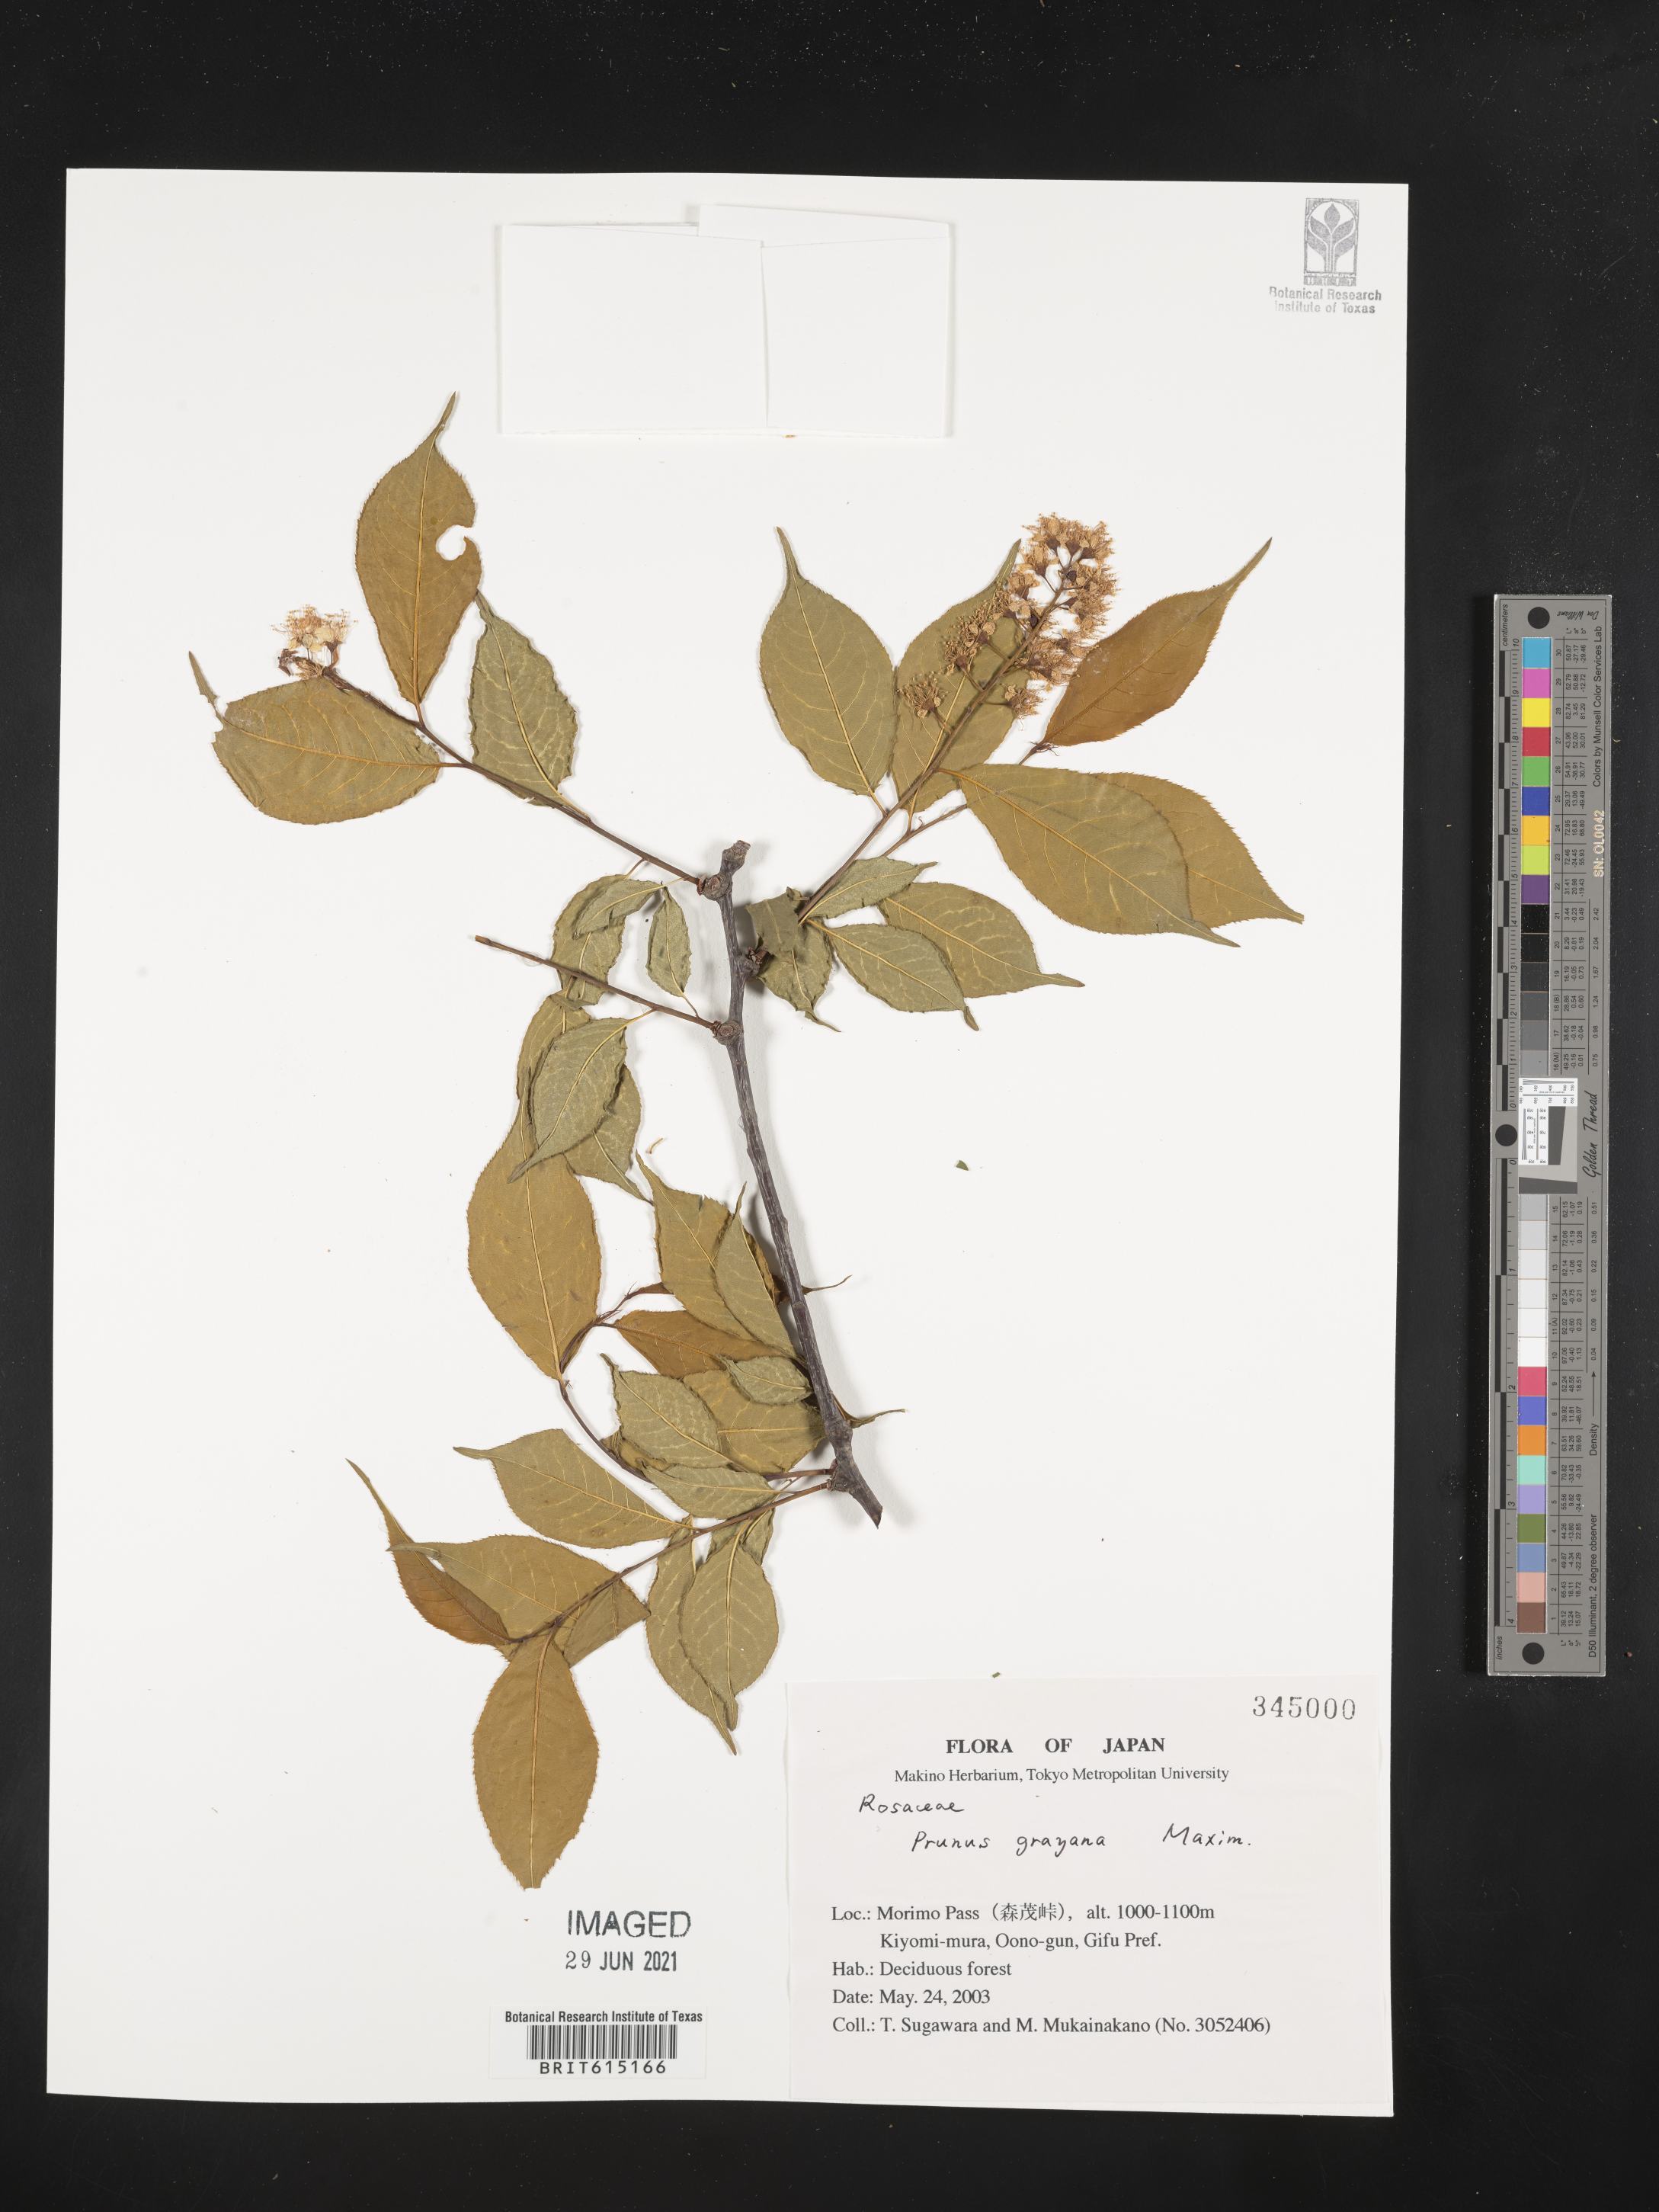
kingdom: Plantae
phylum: Tracheophyta
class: Magnoliopsida
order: Rosales
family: Rosaceae
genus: Prunus
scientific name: Prunus grayana
